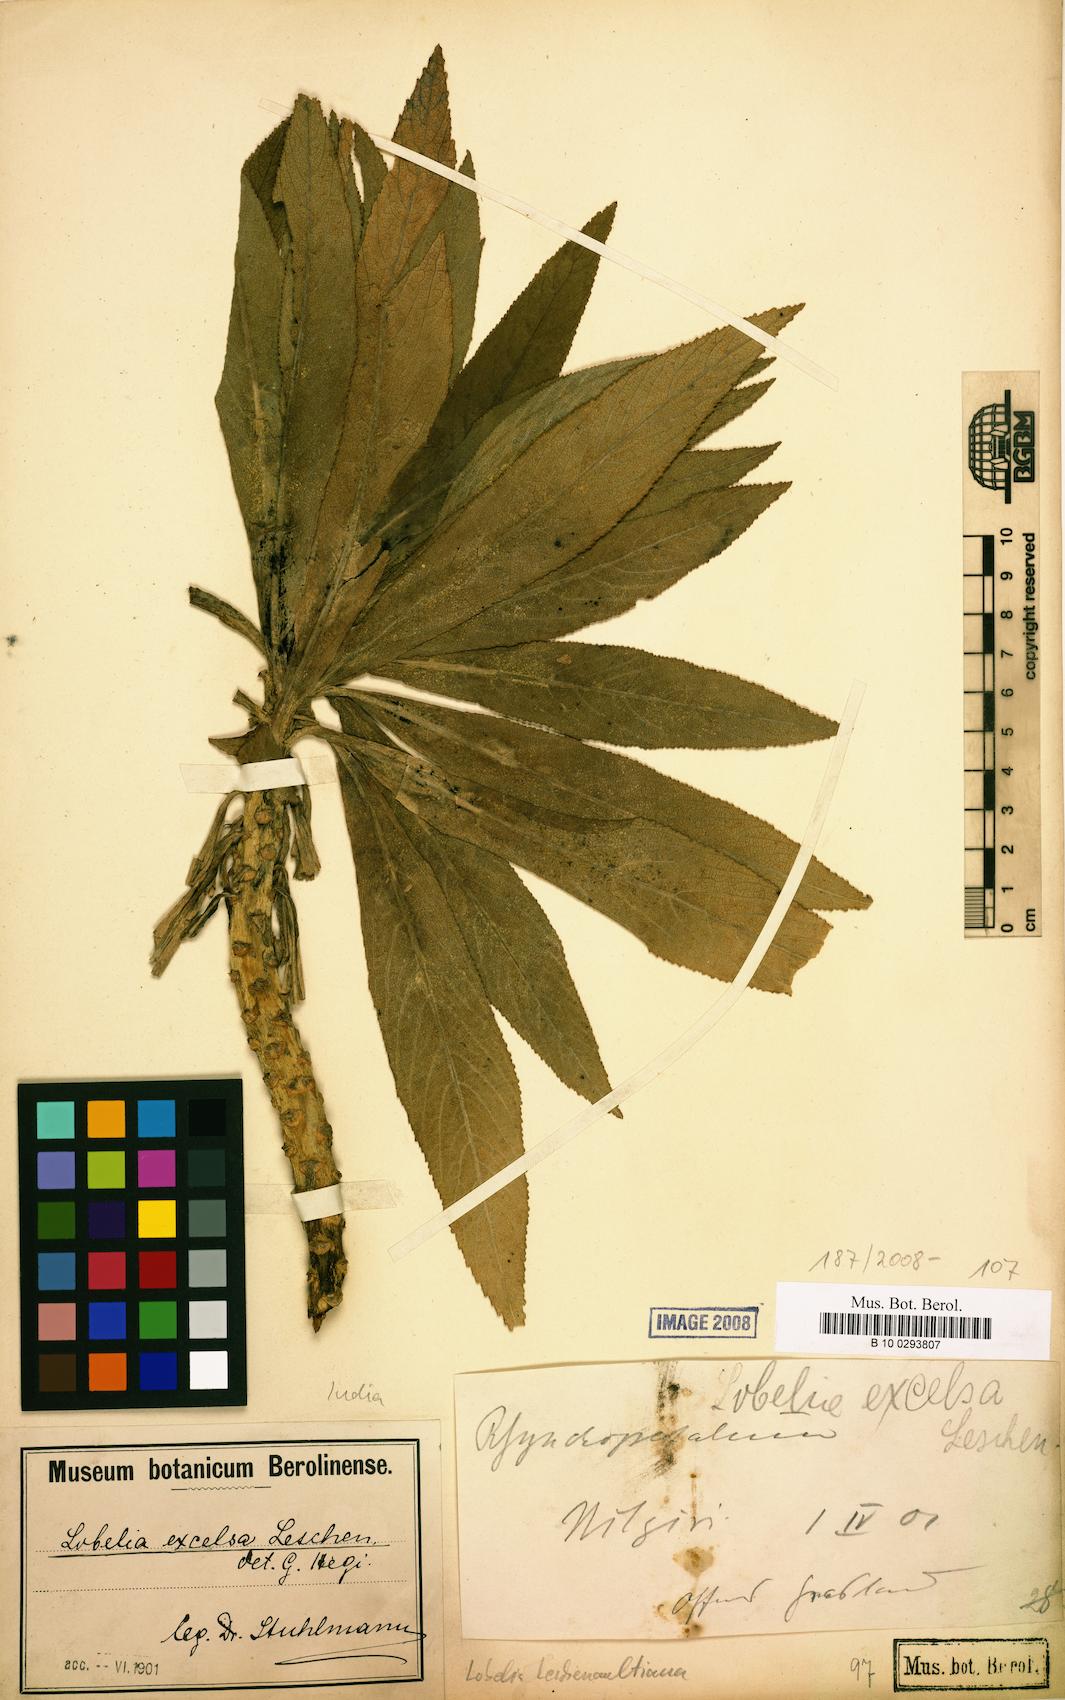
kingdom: Plantae
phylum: Tracheophyta
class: Magnoliopsida
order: Asterales
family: Campanulaceae
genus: Lobelia
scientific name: Lobelia leschenaultiana
